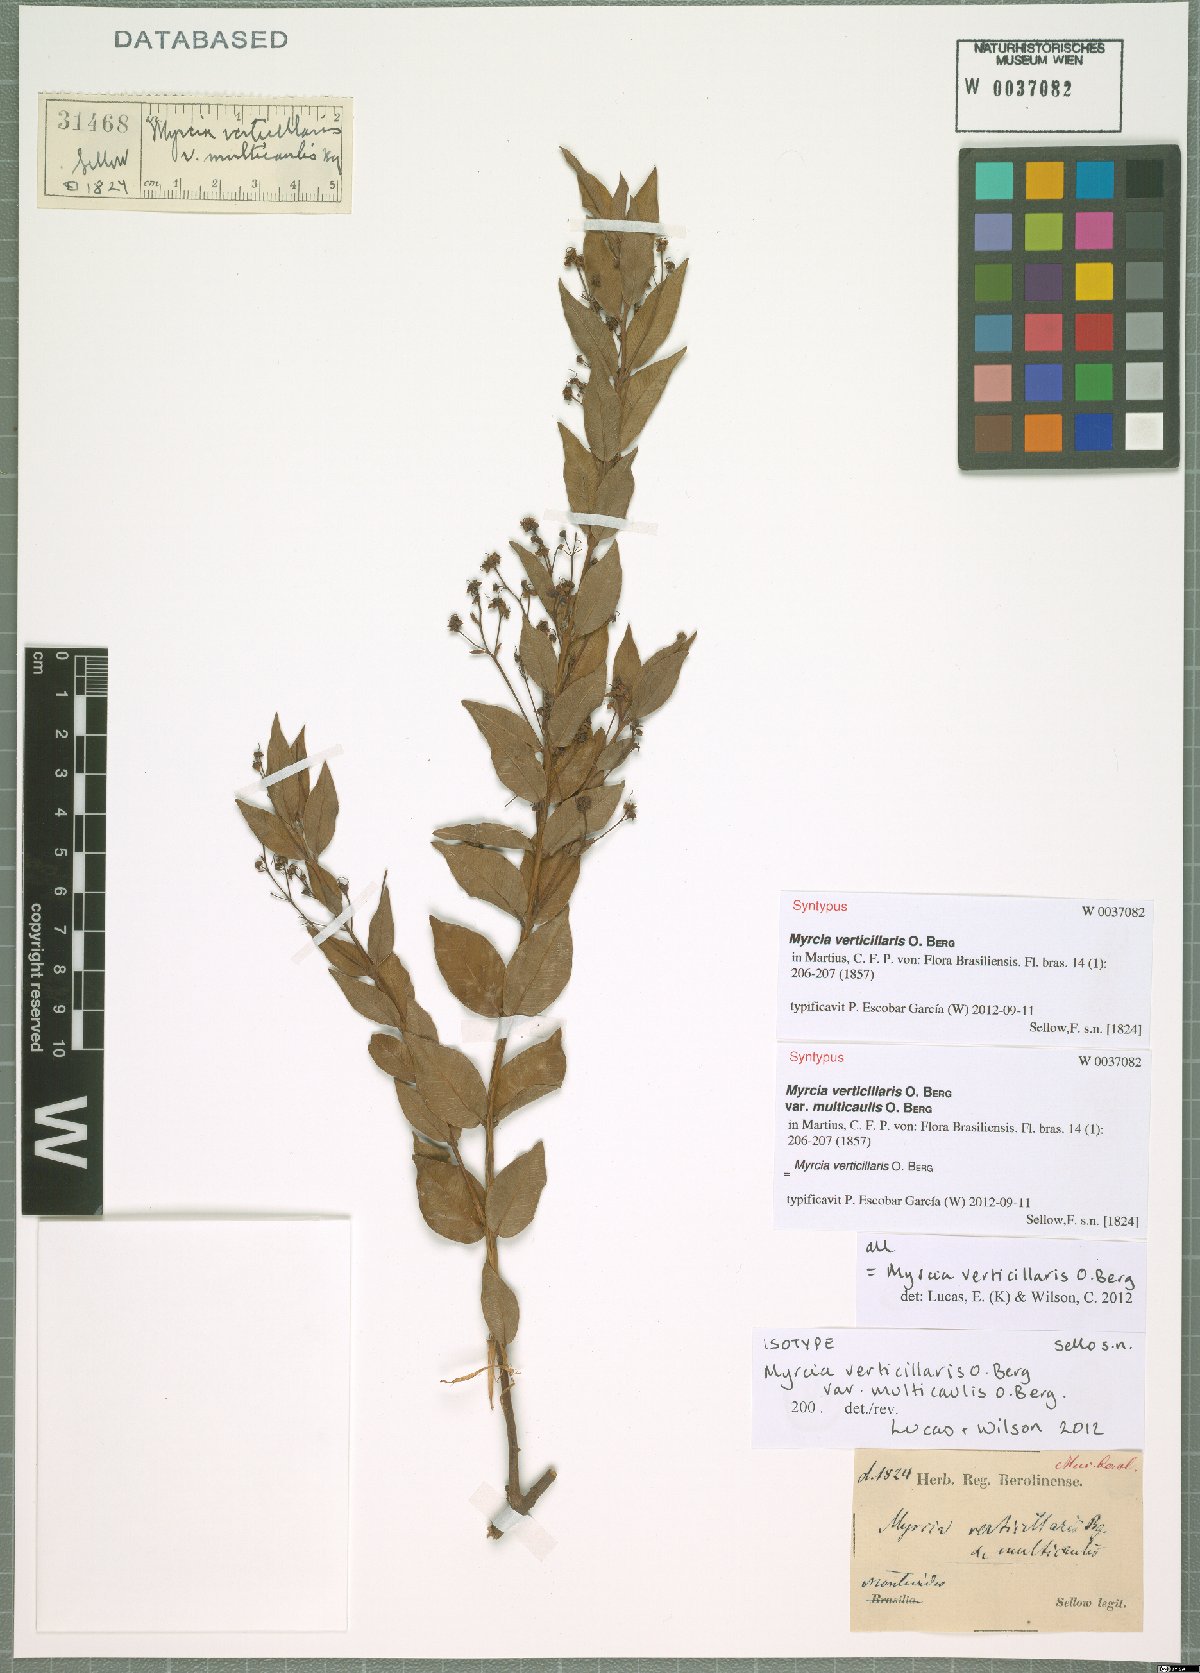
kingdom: Plantae
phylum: Tracheophyta
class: Magnoliopsida
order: Myrtales
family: Myrtaceae
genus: Myrcia
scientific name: Myrcia verticillaris
